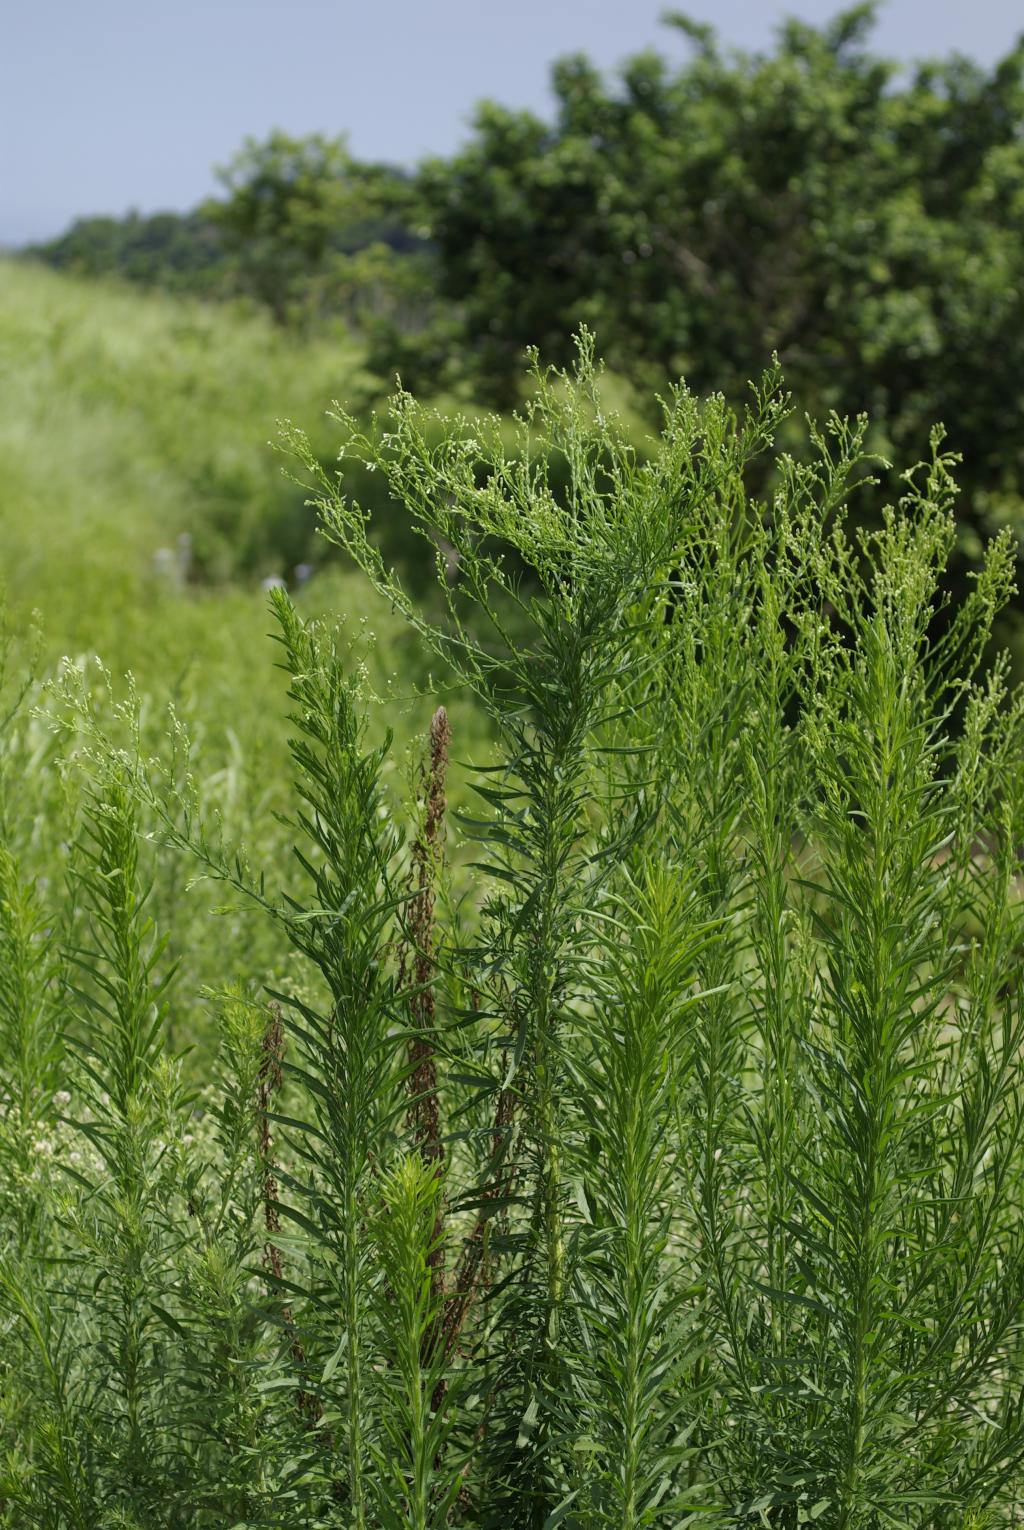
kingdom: Plantae
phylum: Tracheophyta
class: Magnoliopsida
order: Asterales
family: Asteraceae
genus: Erigeron
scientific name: Erigeron canadensis
